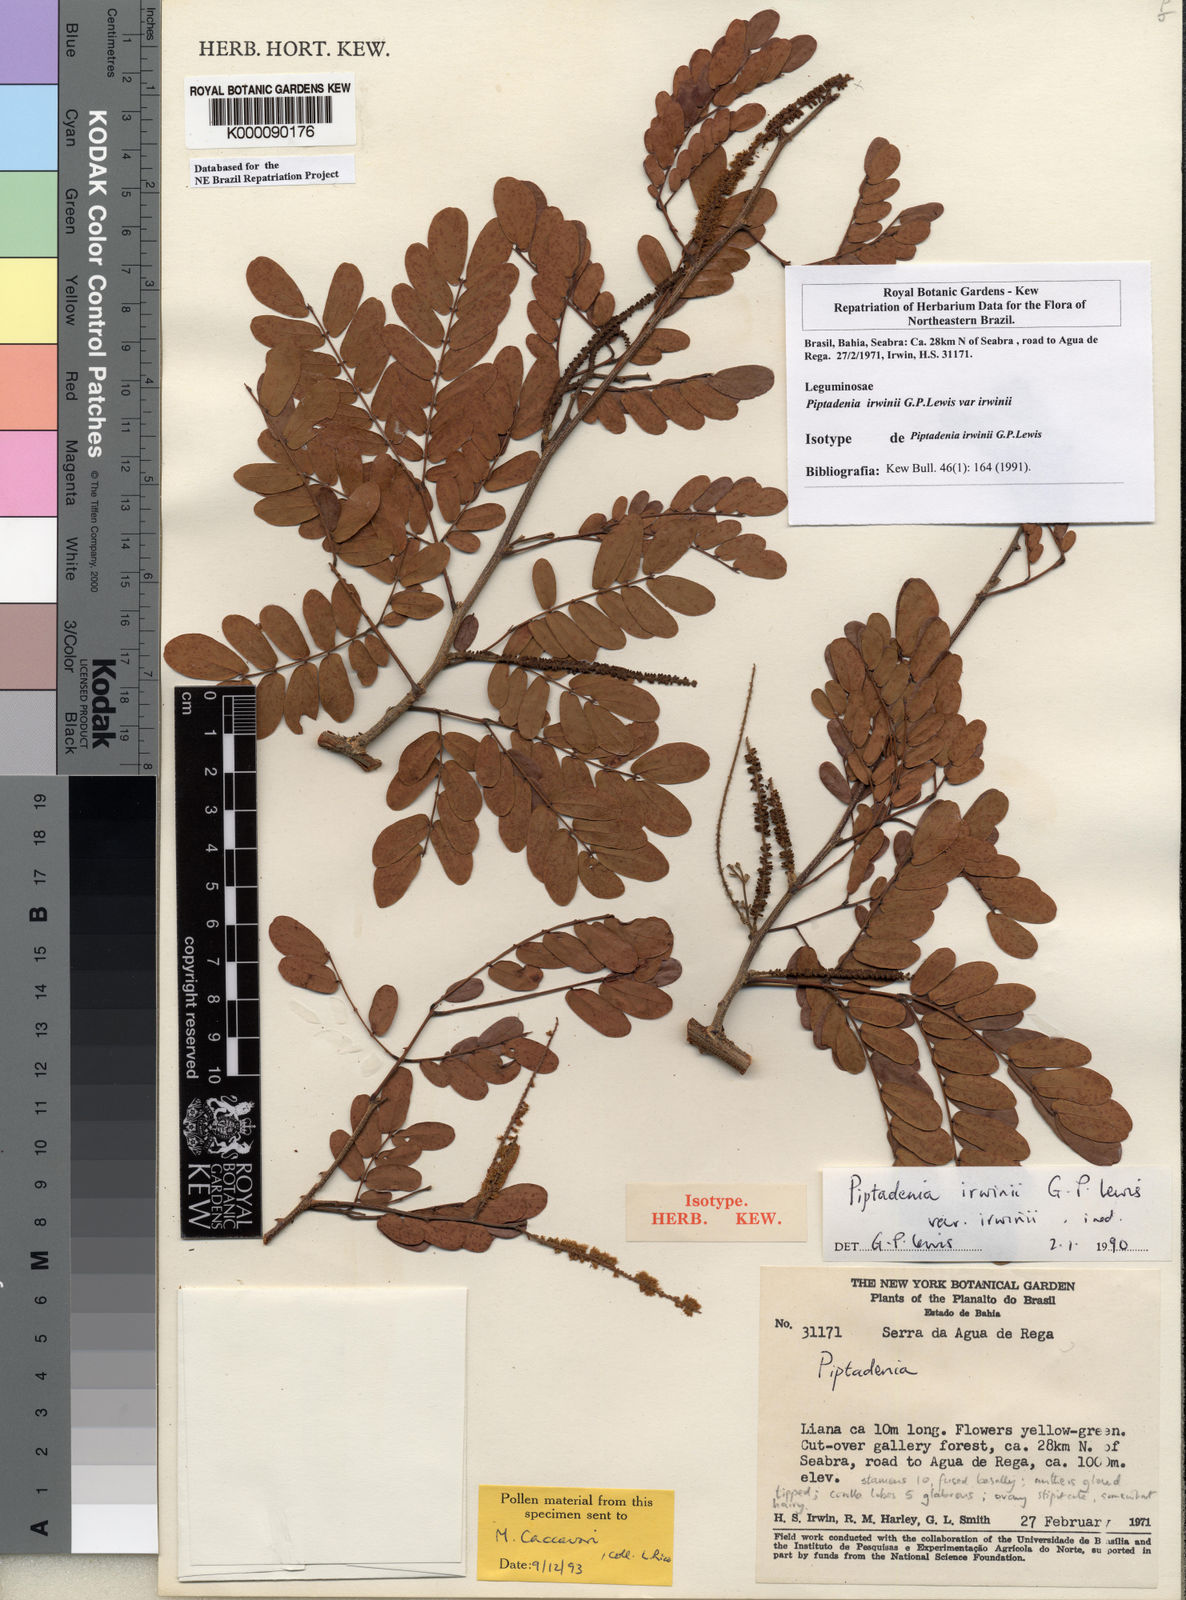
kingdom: Plantae
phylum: Tracheophyta
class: Magnoliopsida
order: Fabales
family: Fabaceae
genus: Piptadenia
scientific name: Piptadenia irwinii
